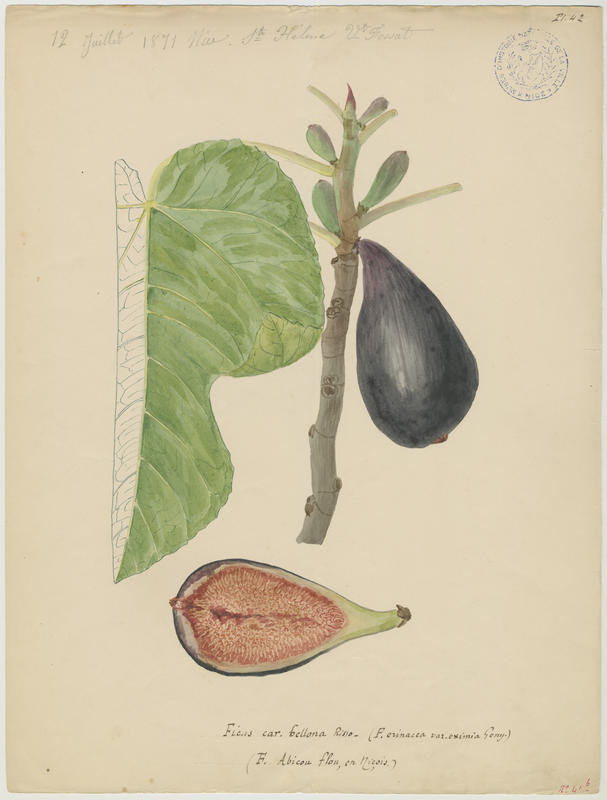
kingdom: Plantae
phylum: Tracheophyta
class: Magnoliopsida
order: Rosales
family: Moraceae
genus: Ficus
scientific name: Ficus carica
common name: Fig
